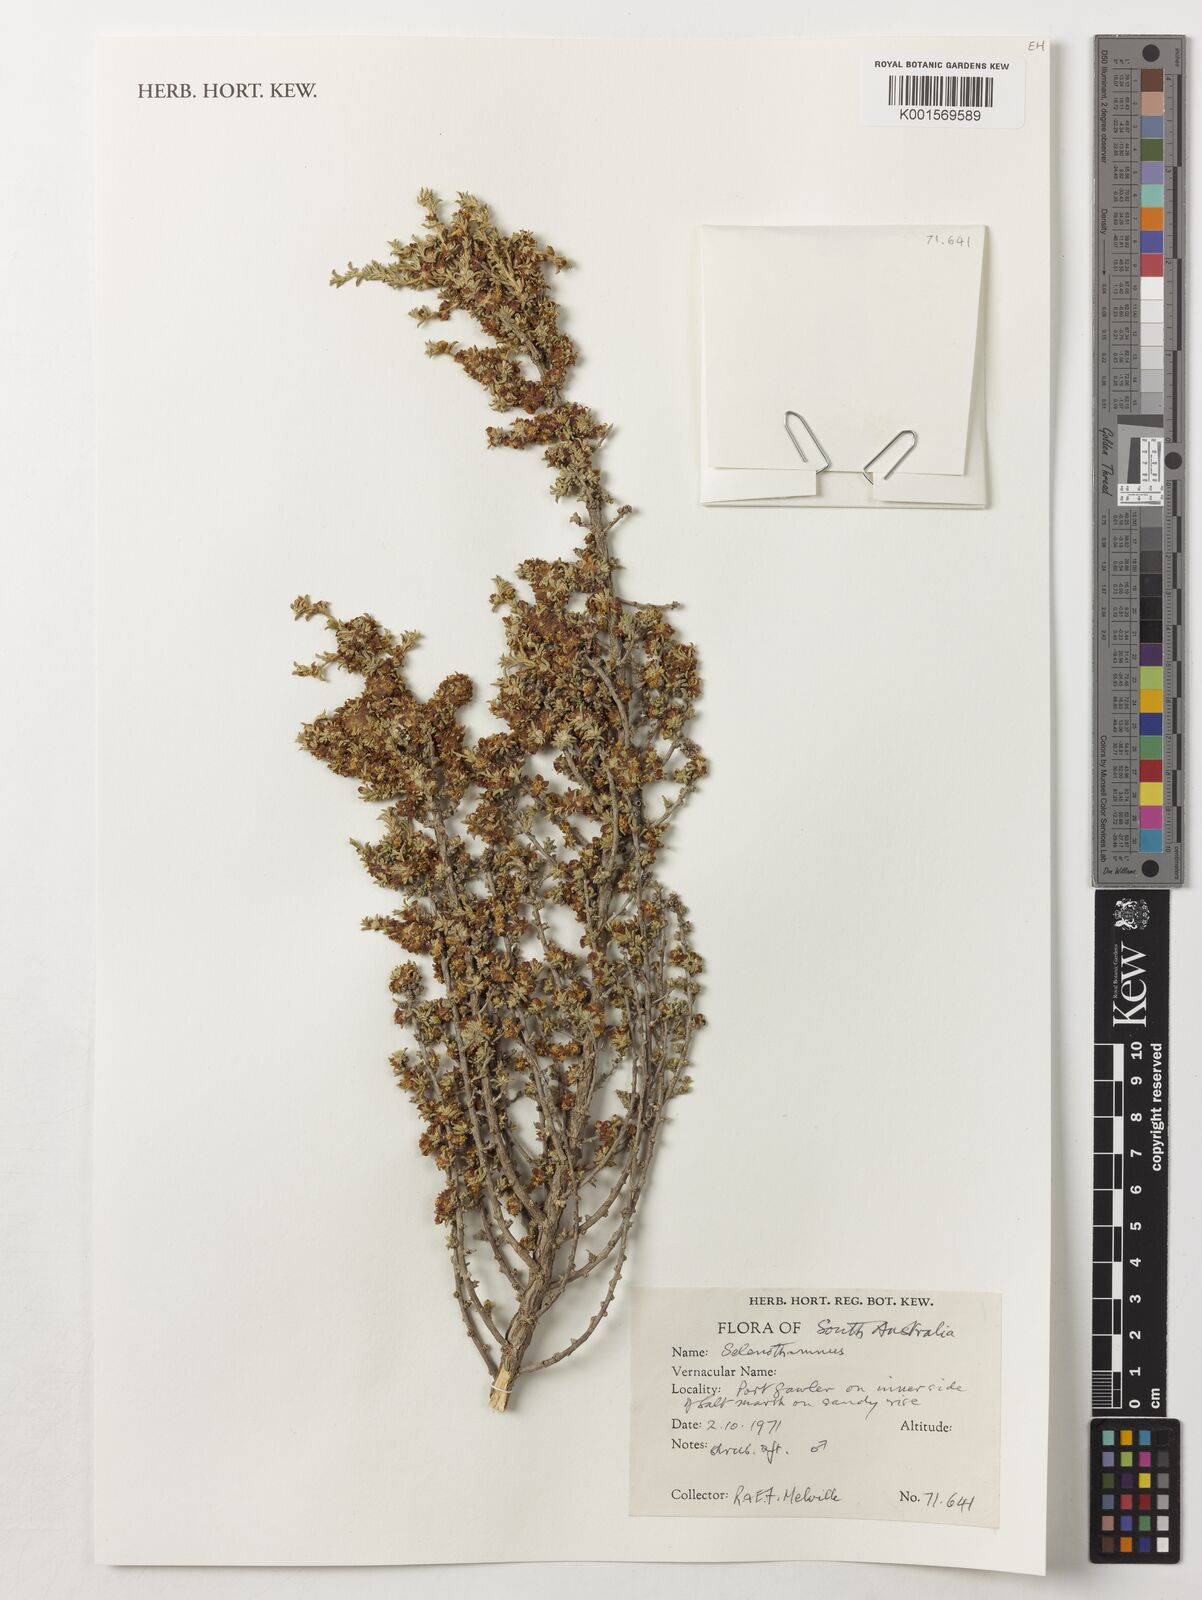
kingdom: Plantae
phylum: Tracheophyta
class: Magnoliopsida
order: Malvales
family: Malvaceae
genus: Lawrencia
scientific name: Lawrencia
